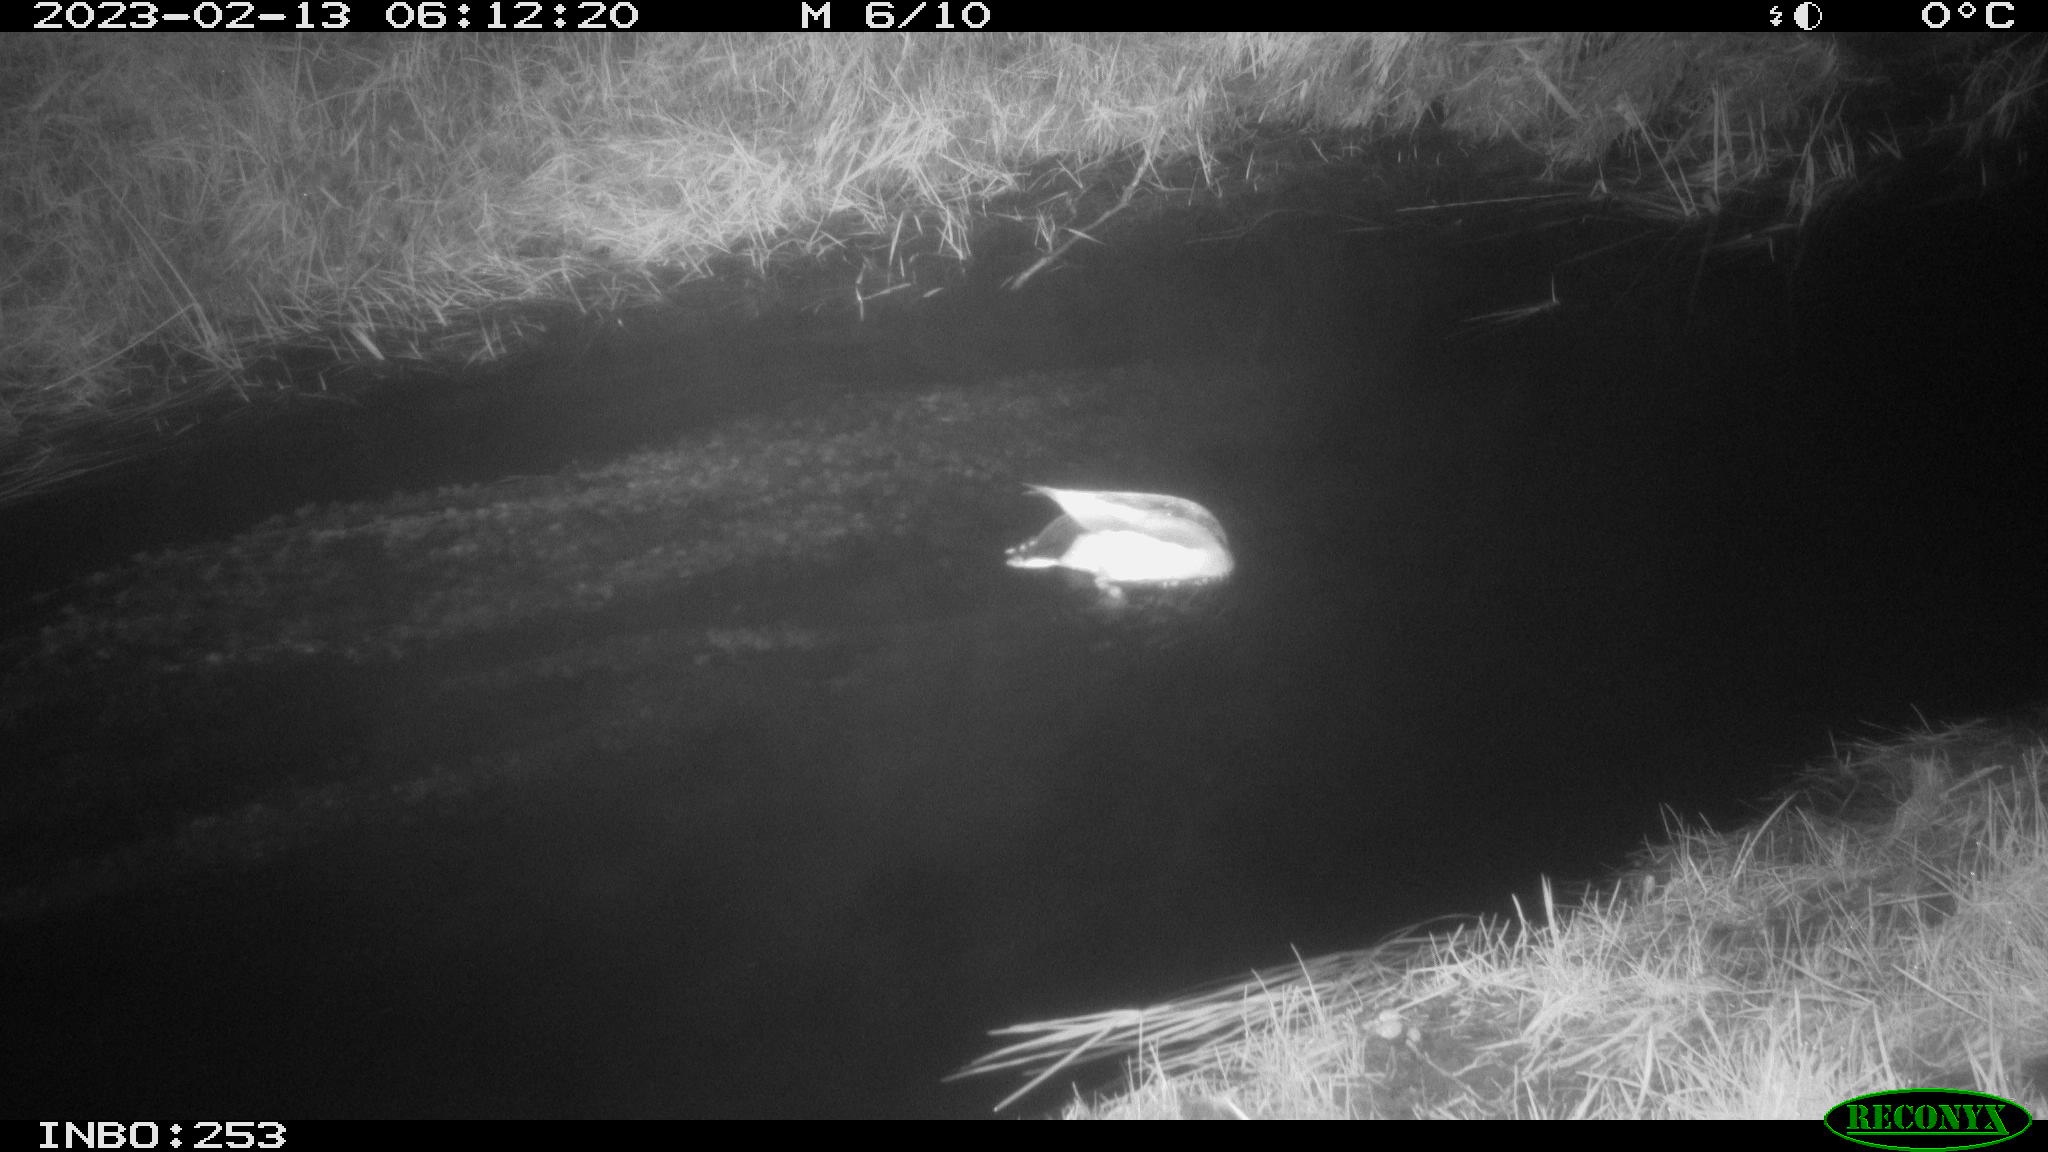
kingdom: Animalia
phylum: Chordata
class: Mammalia
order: Rodentia
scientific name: Rodentia
